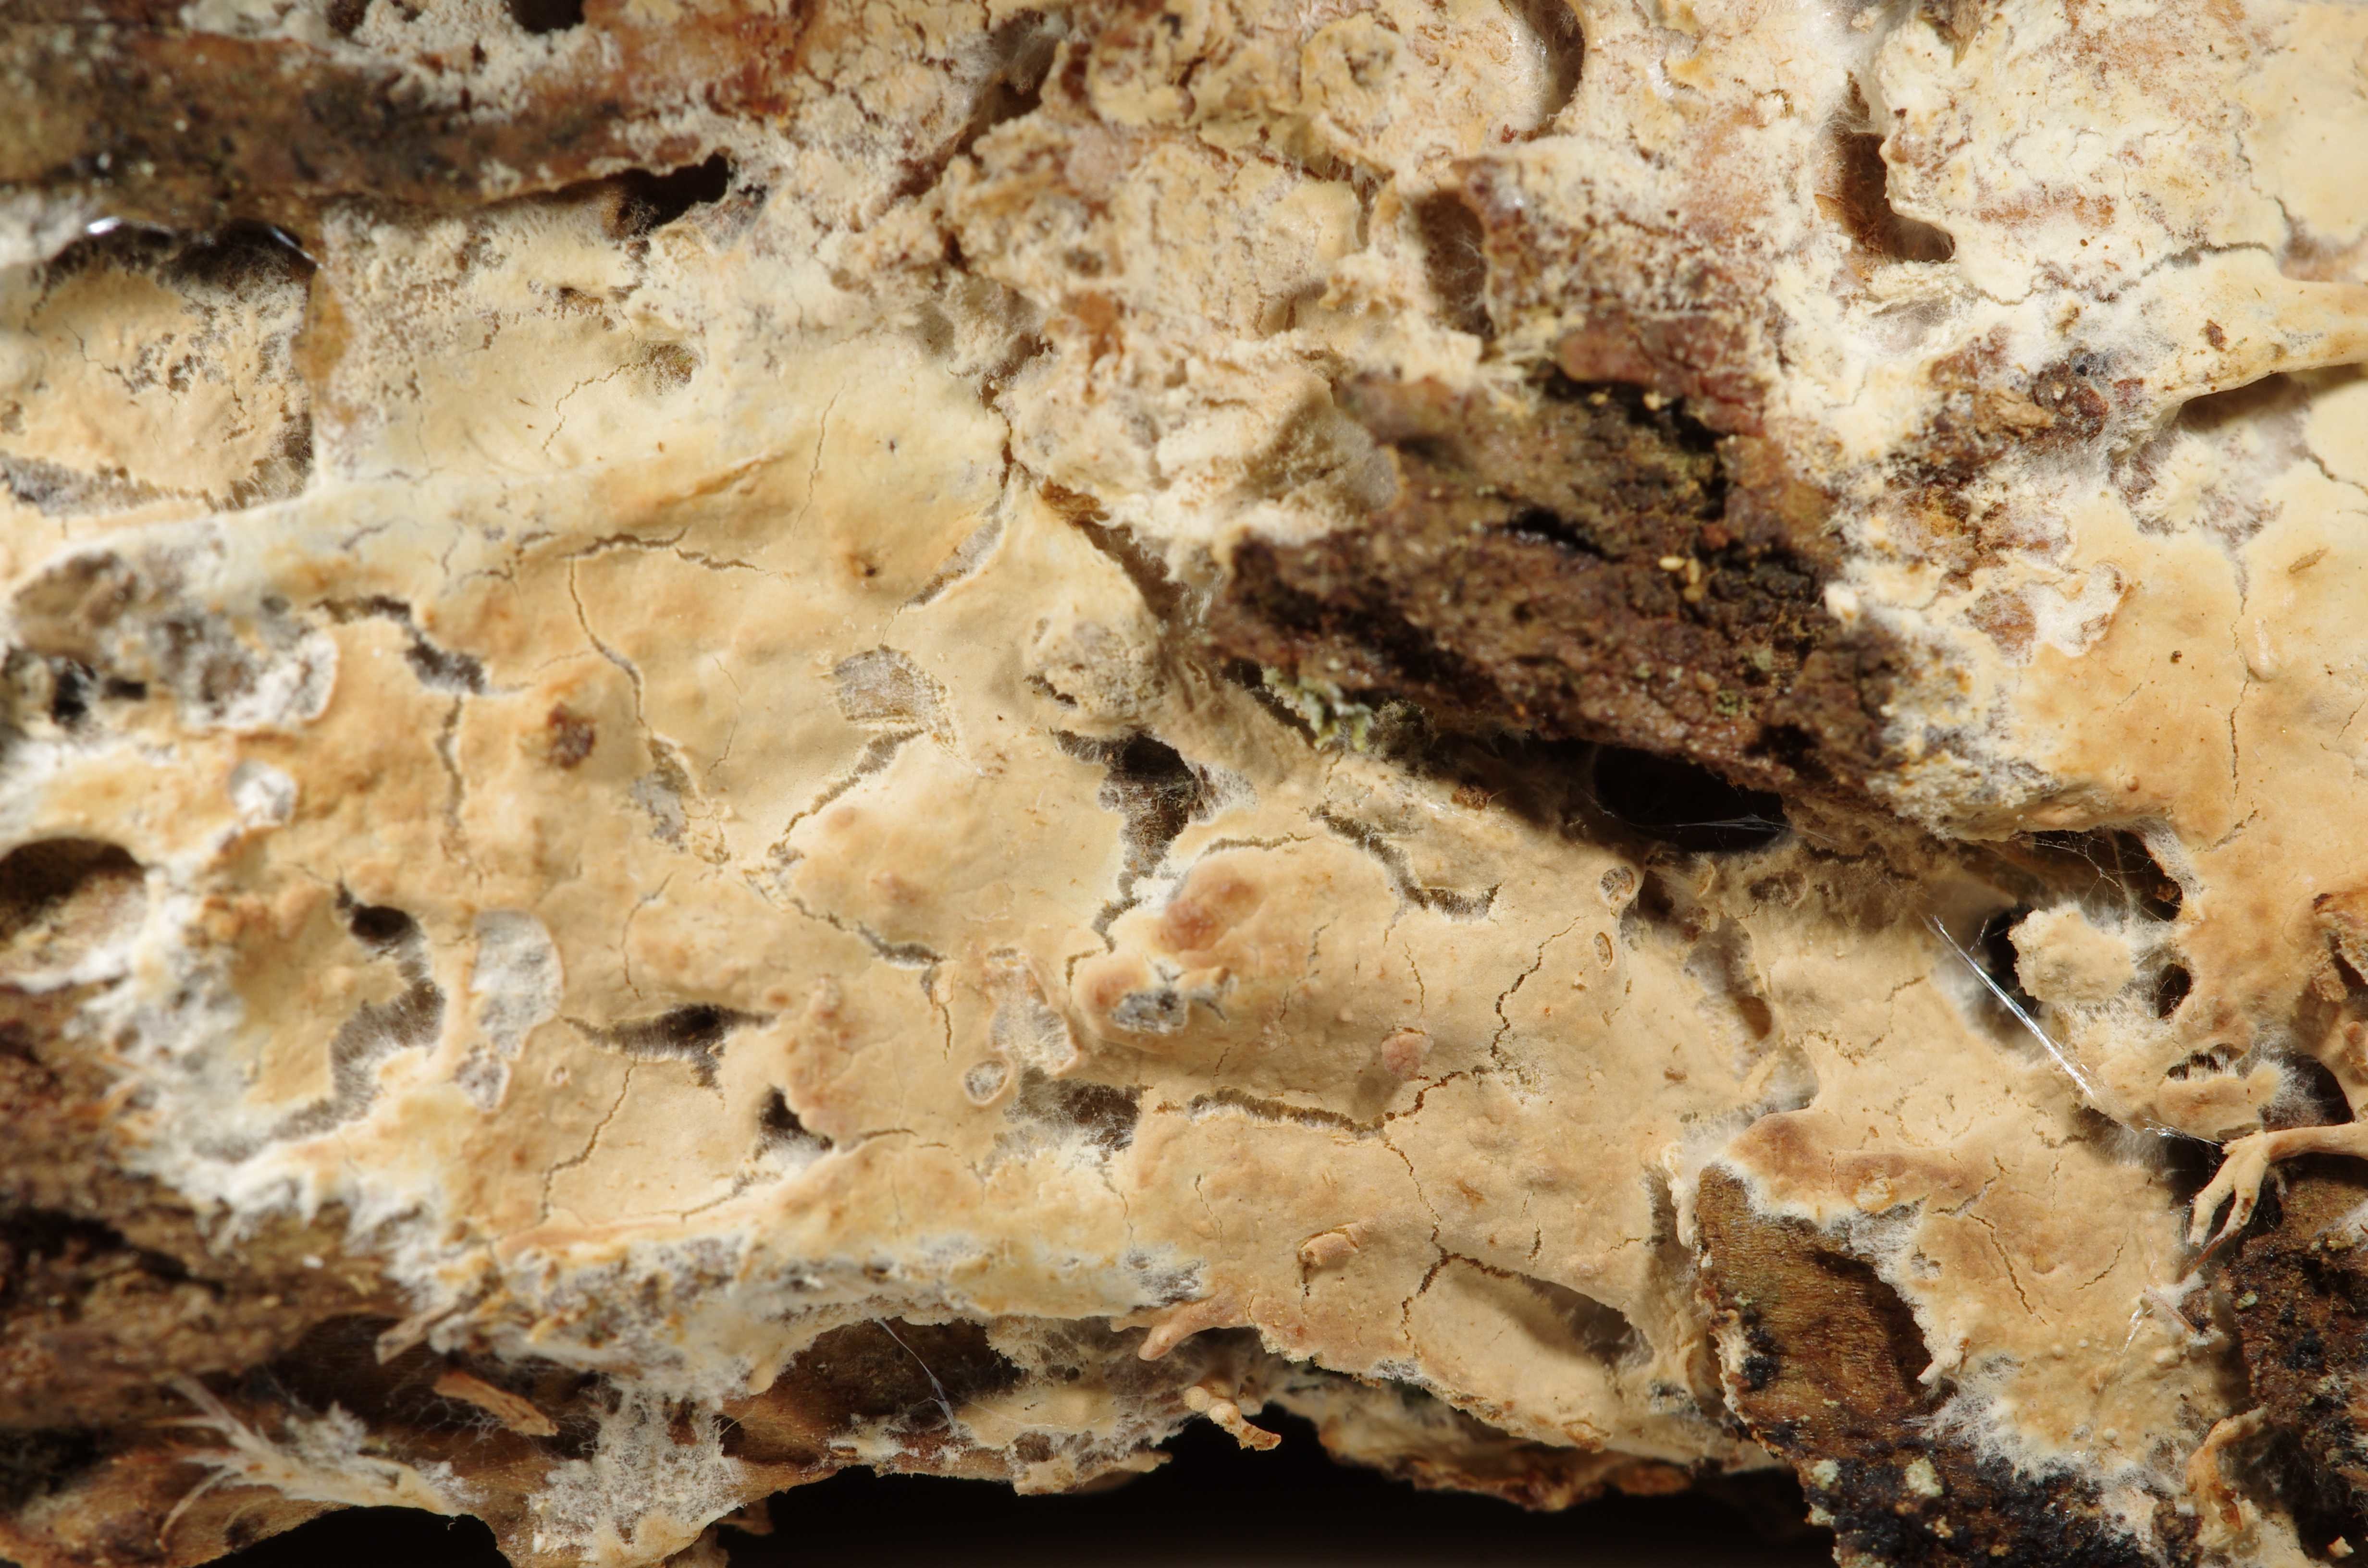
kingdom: Fungi
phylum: Basidiomycota
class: Agaricomycetes
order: Amylocorticiales
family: Amylocorticiaceae
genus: Amylocorticium
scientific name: Amylocorticium pedunculatum
